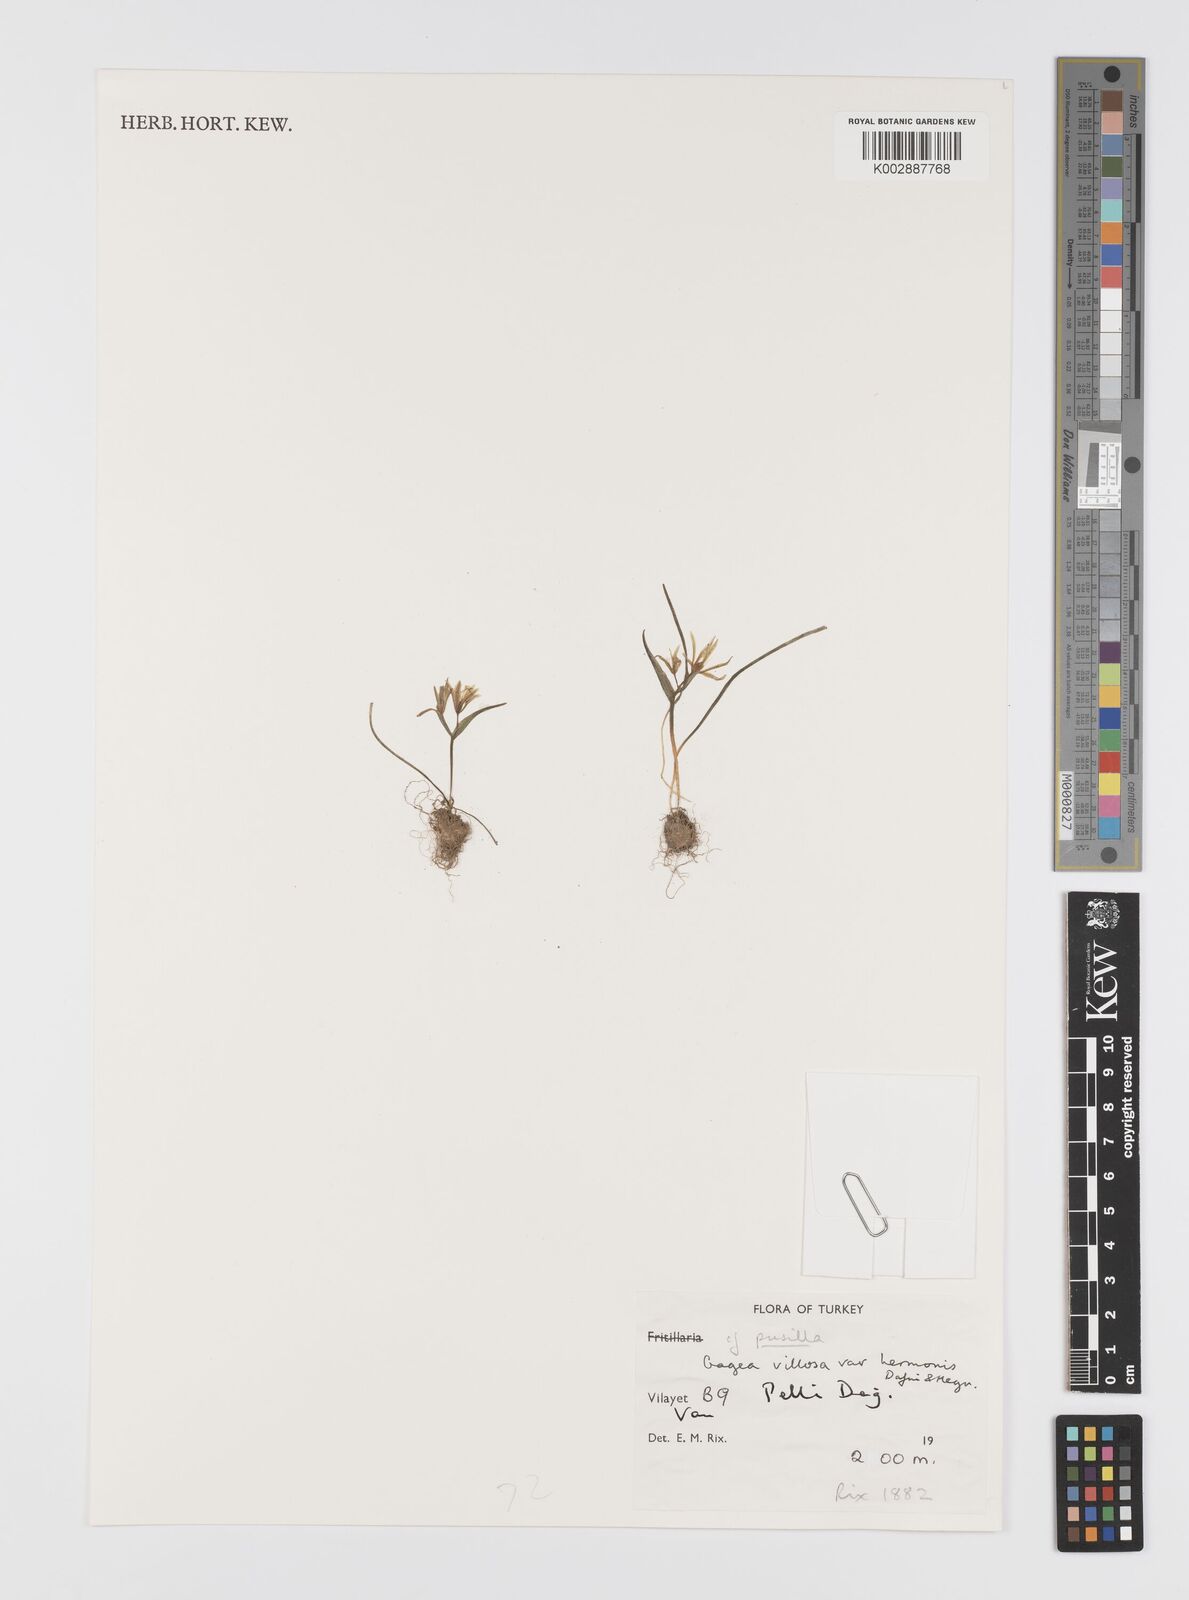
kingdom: Plantae
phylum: Tracheophyta
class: Liliopsida
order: Liliales
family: Liliaceae
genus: Gagea
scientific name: Gagea villosa
